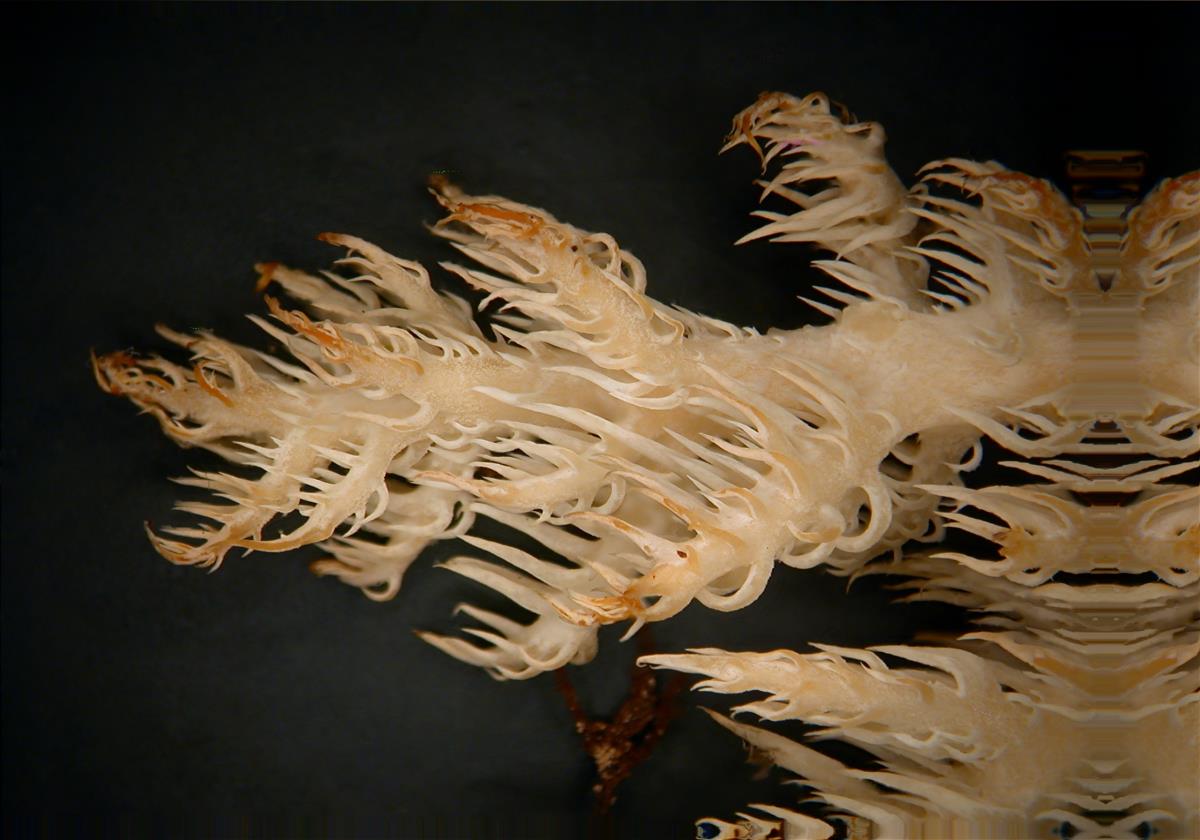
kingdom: Fungi
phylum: Basidiomycota
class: Agaricomycetes
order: Russulales
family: Hericiaceae
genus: Hericium
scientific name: Hericium novae-zealandiae
